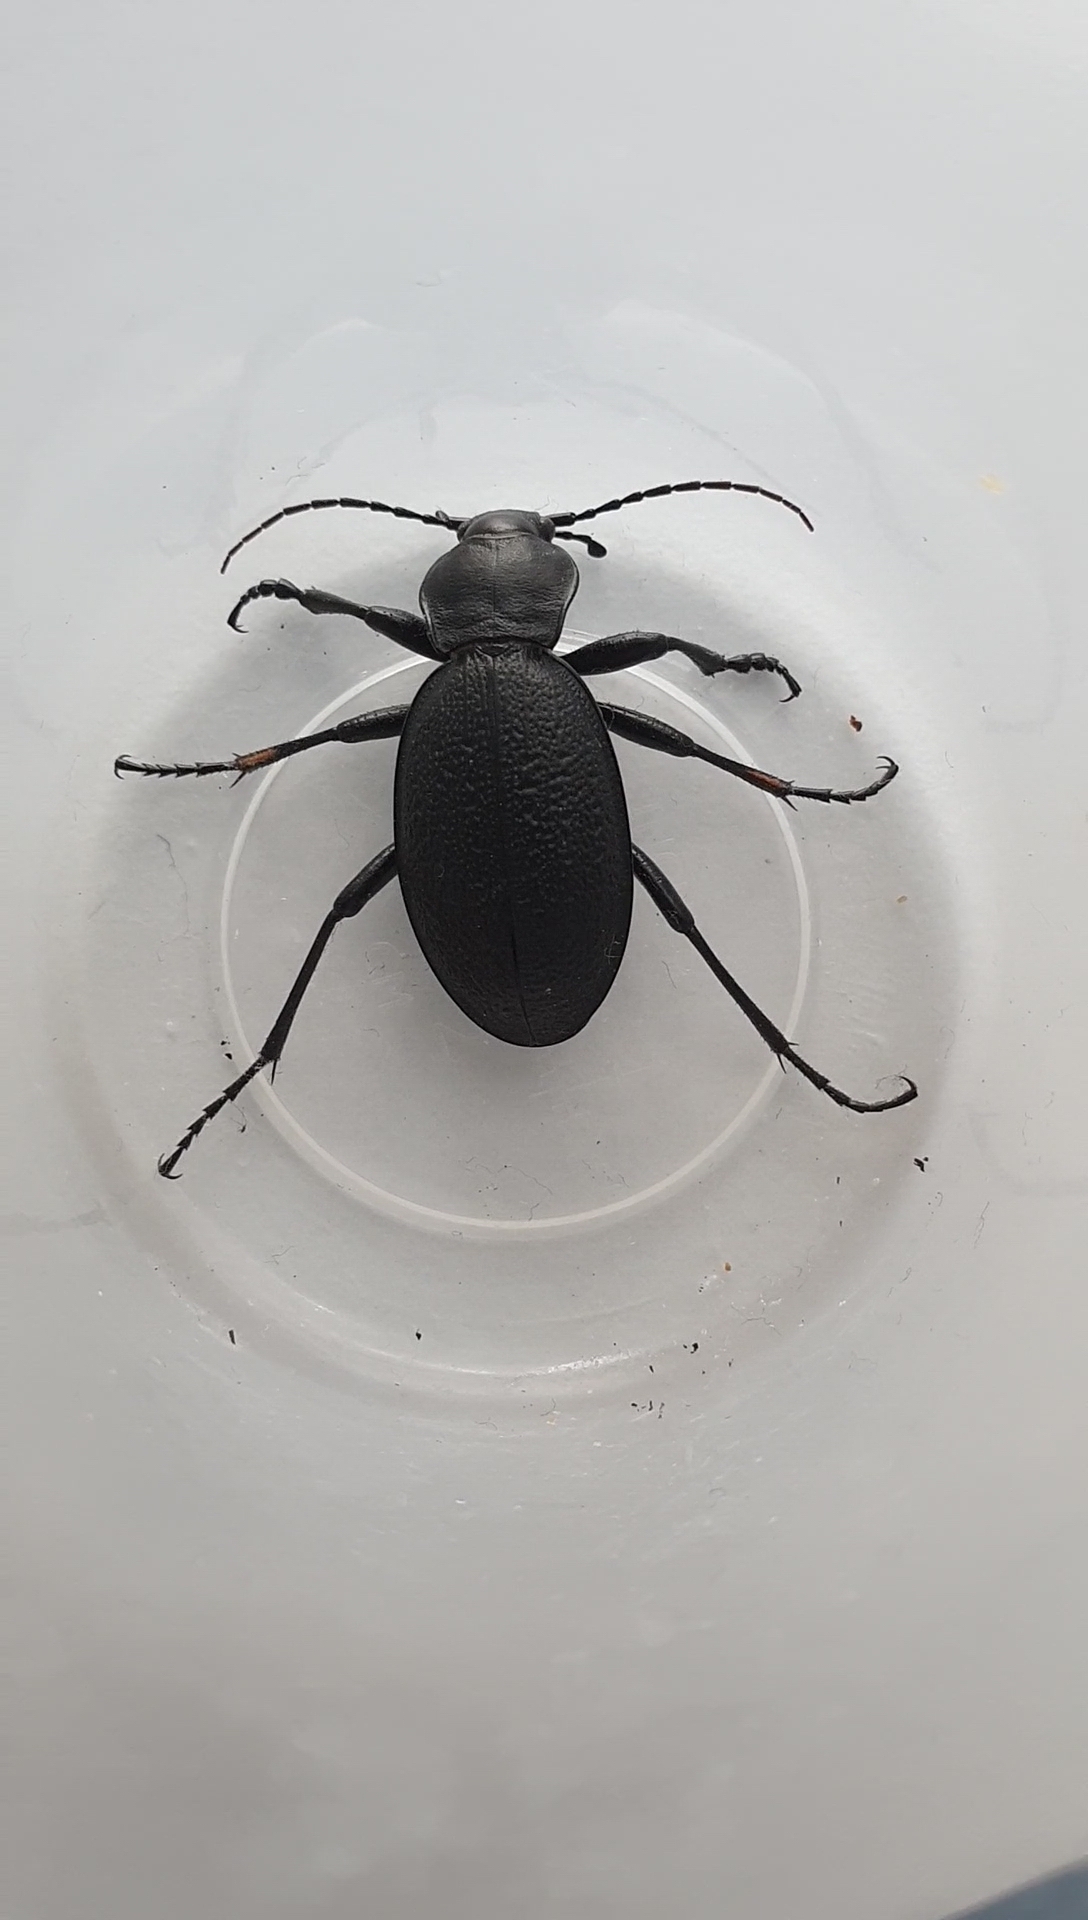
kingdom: Animalia
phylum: Arthropoda
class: Insecta
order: Coleoptera
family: Carabidae
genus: Carabus
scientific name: Carabus coriaceus
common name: Læderløber
